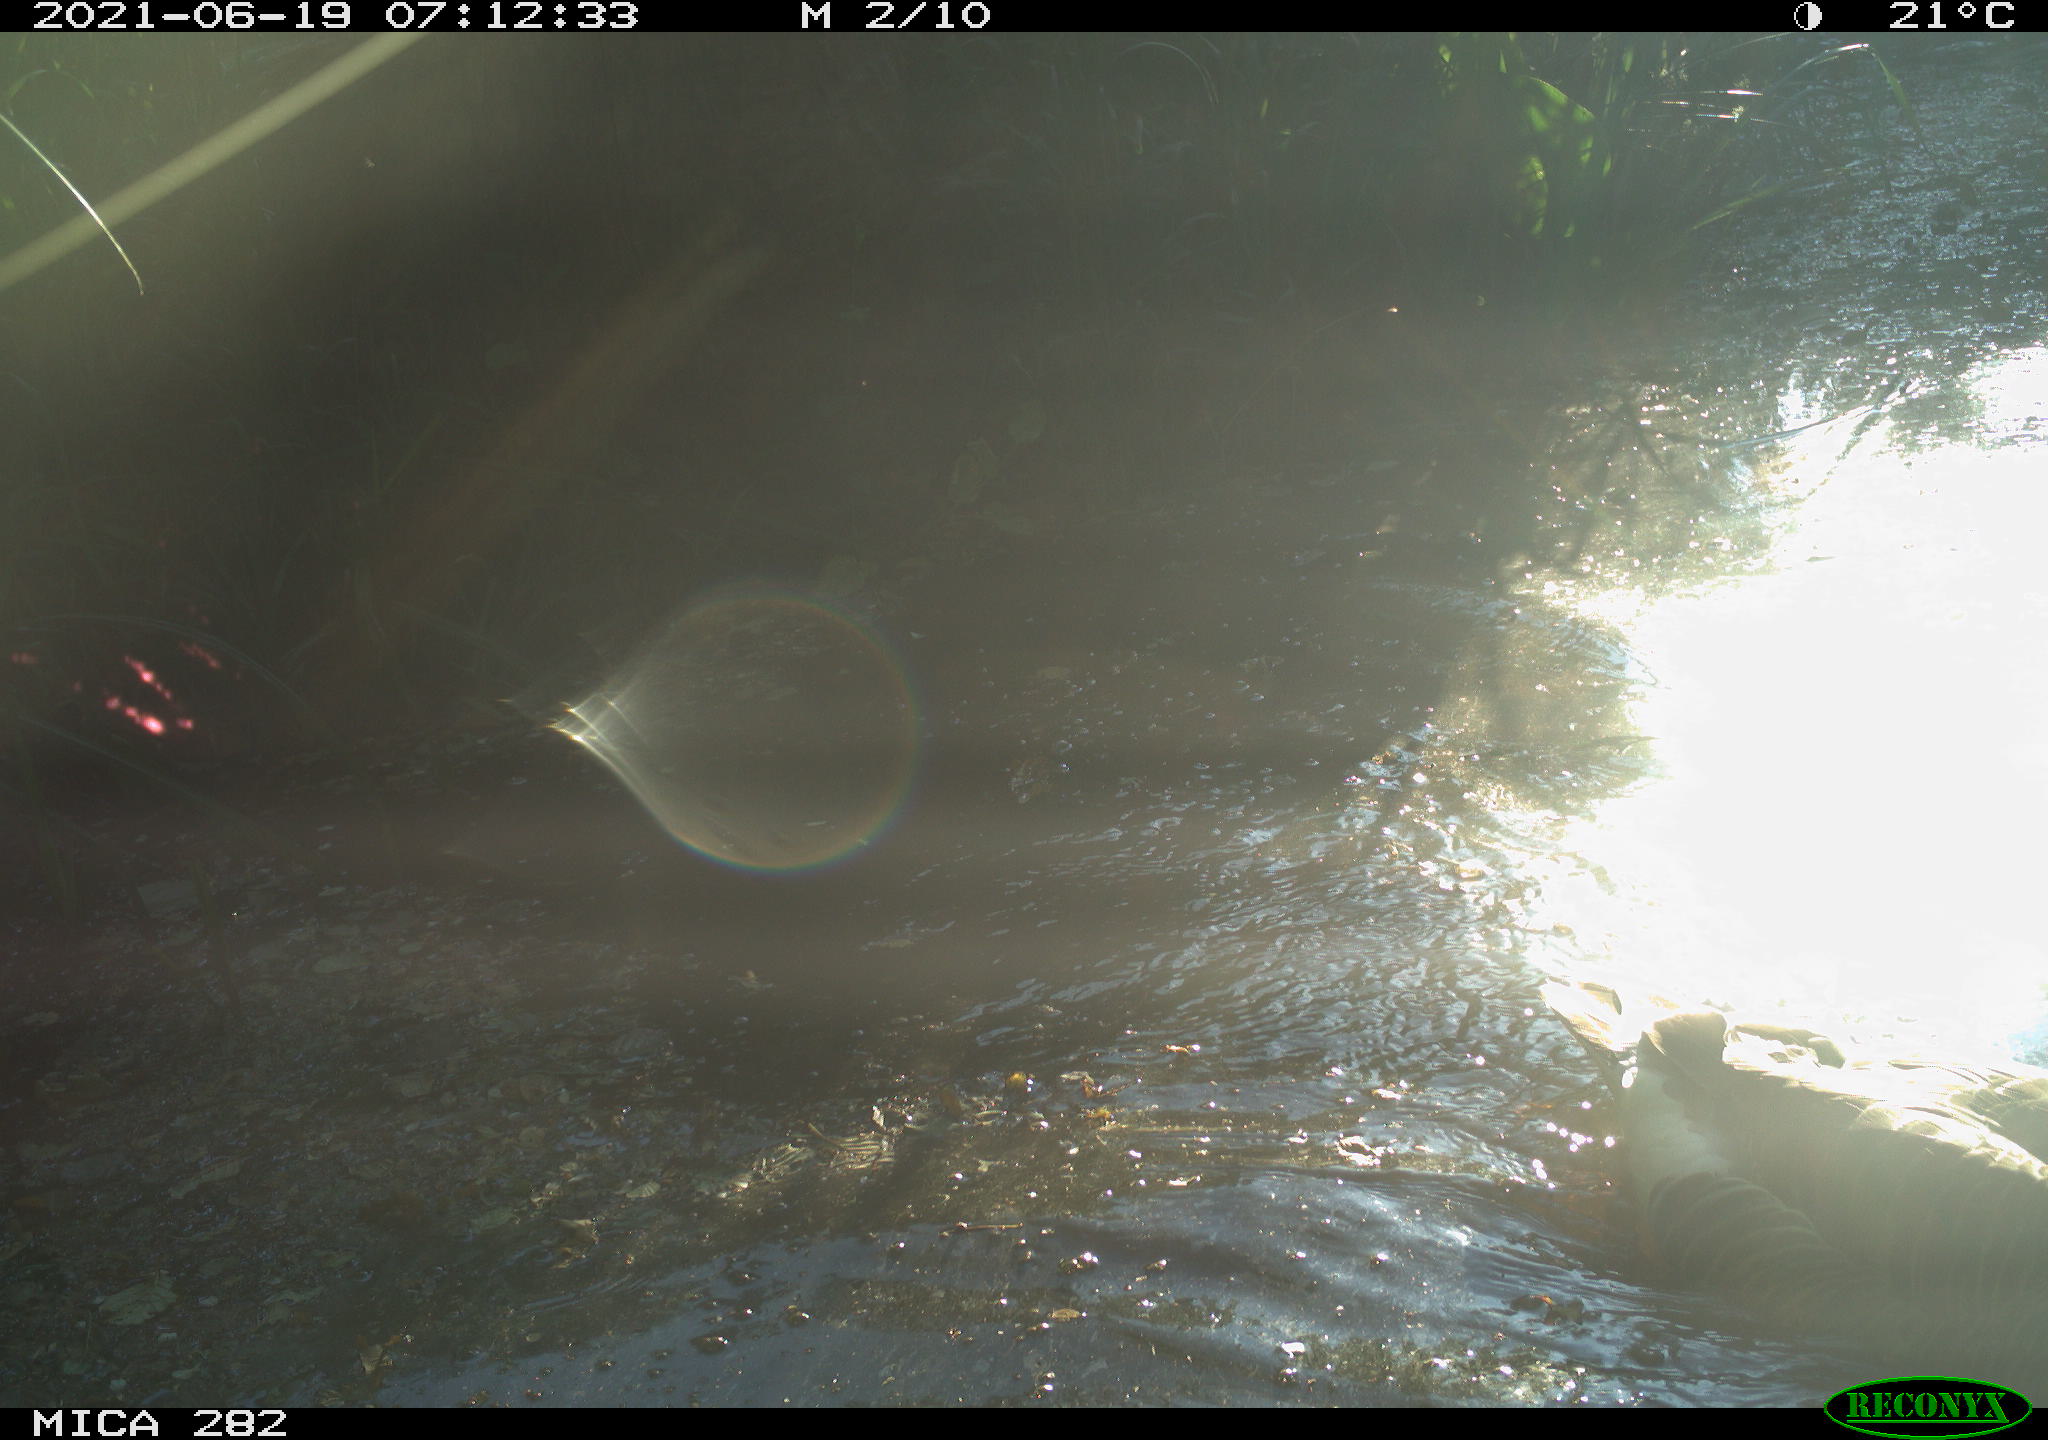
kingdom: Animalia
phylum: Chordata
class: Aves
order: Anseriformes
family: Anatidae
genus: Anser
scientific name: Anser anser
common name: Greylag goose
